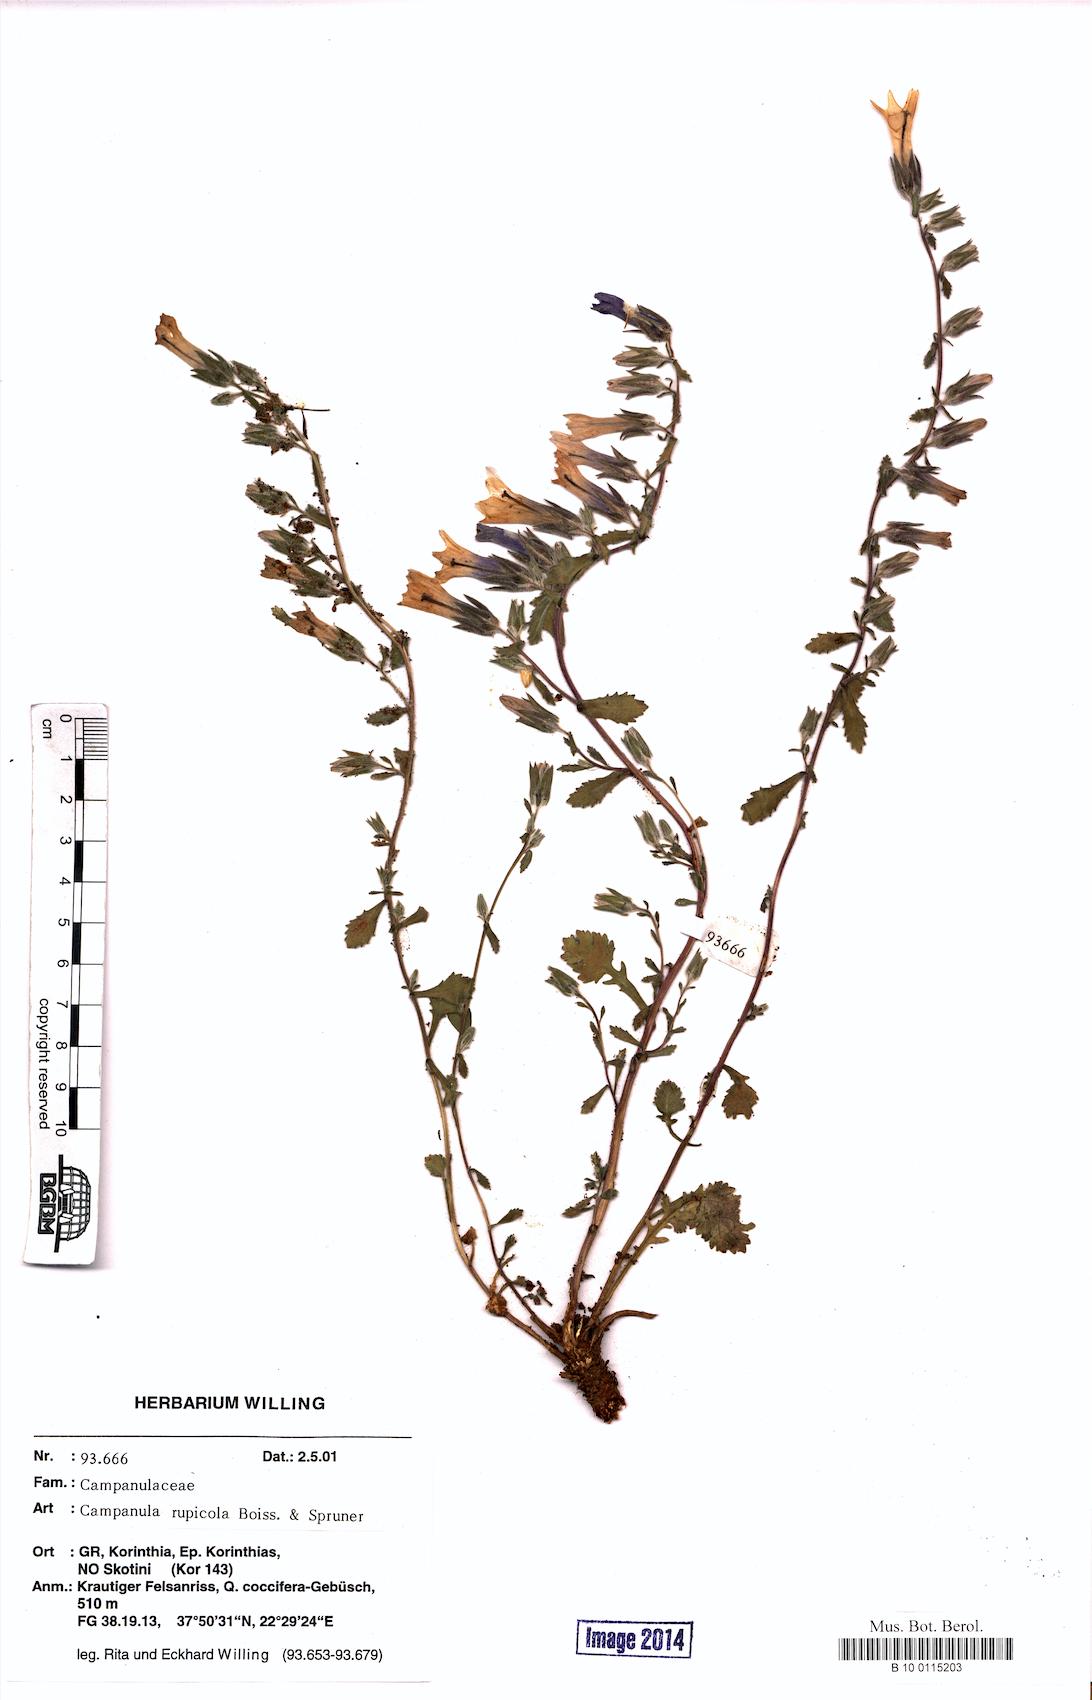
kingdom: Plantae
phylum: Tracheophyta
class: Magnoliopsida
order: Asterales
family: Campanulaceae
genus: Campanula
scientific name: Campanula rupicola
